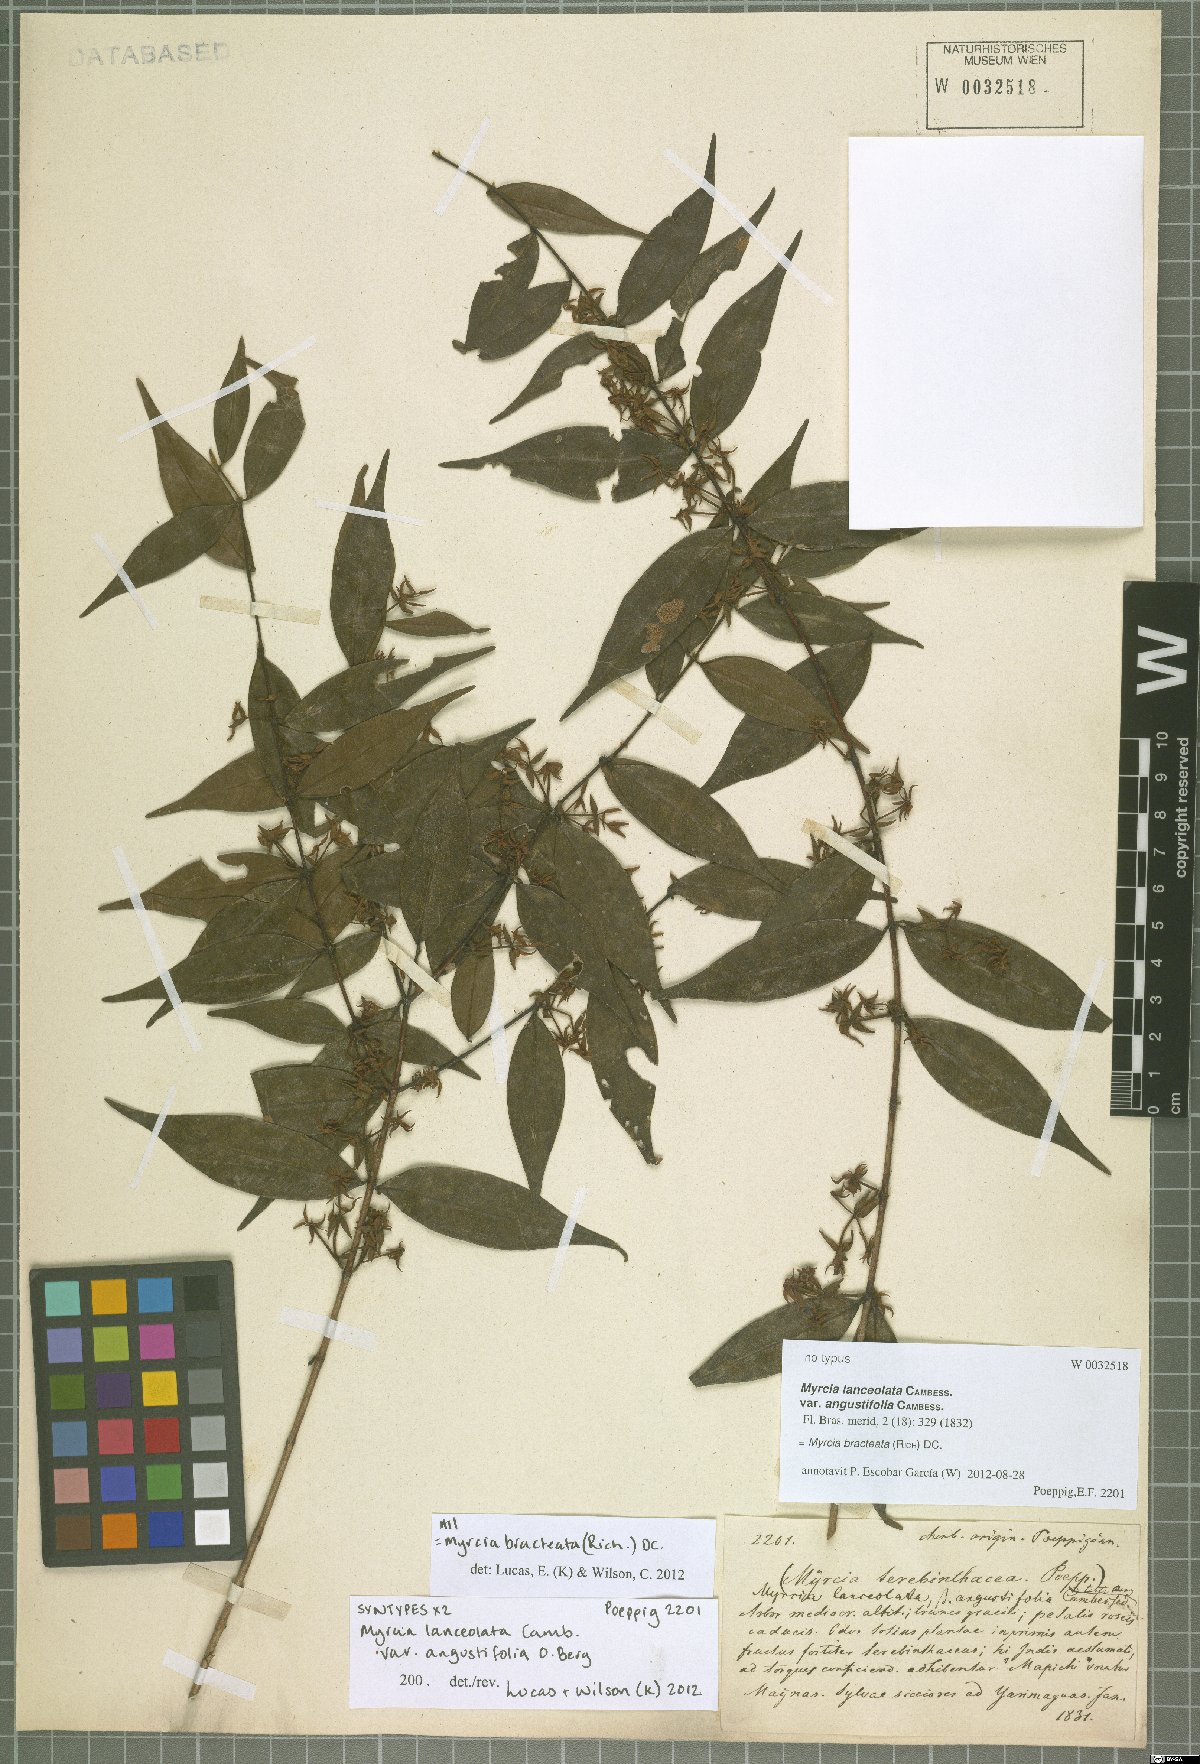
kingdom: Plantae
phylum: Tracheophyta
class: Magnoliopsida
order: Myrtales
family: Myrtaceae
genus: Myrcia
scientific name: Myrcia bracteata
